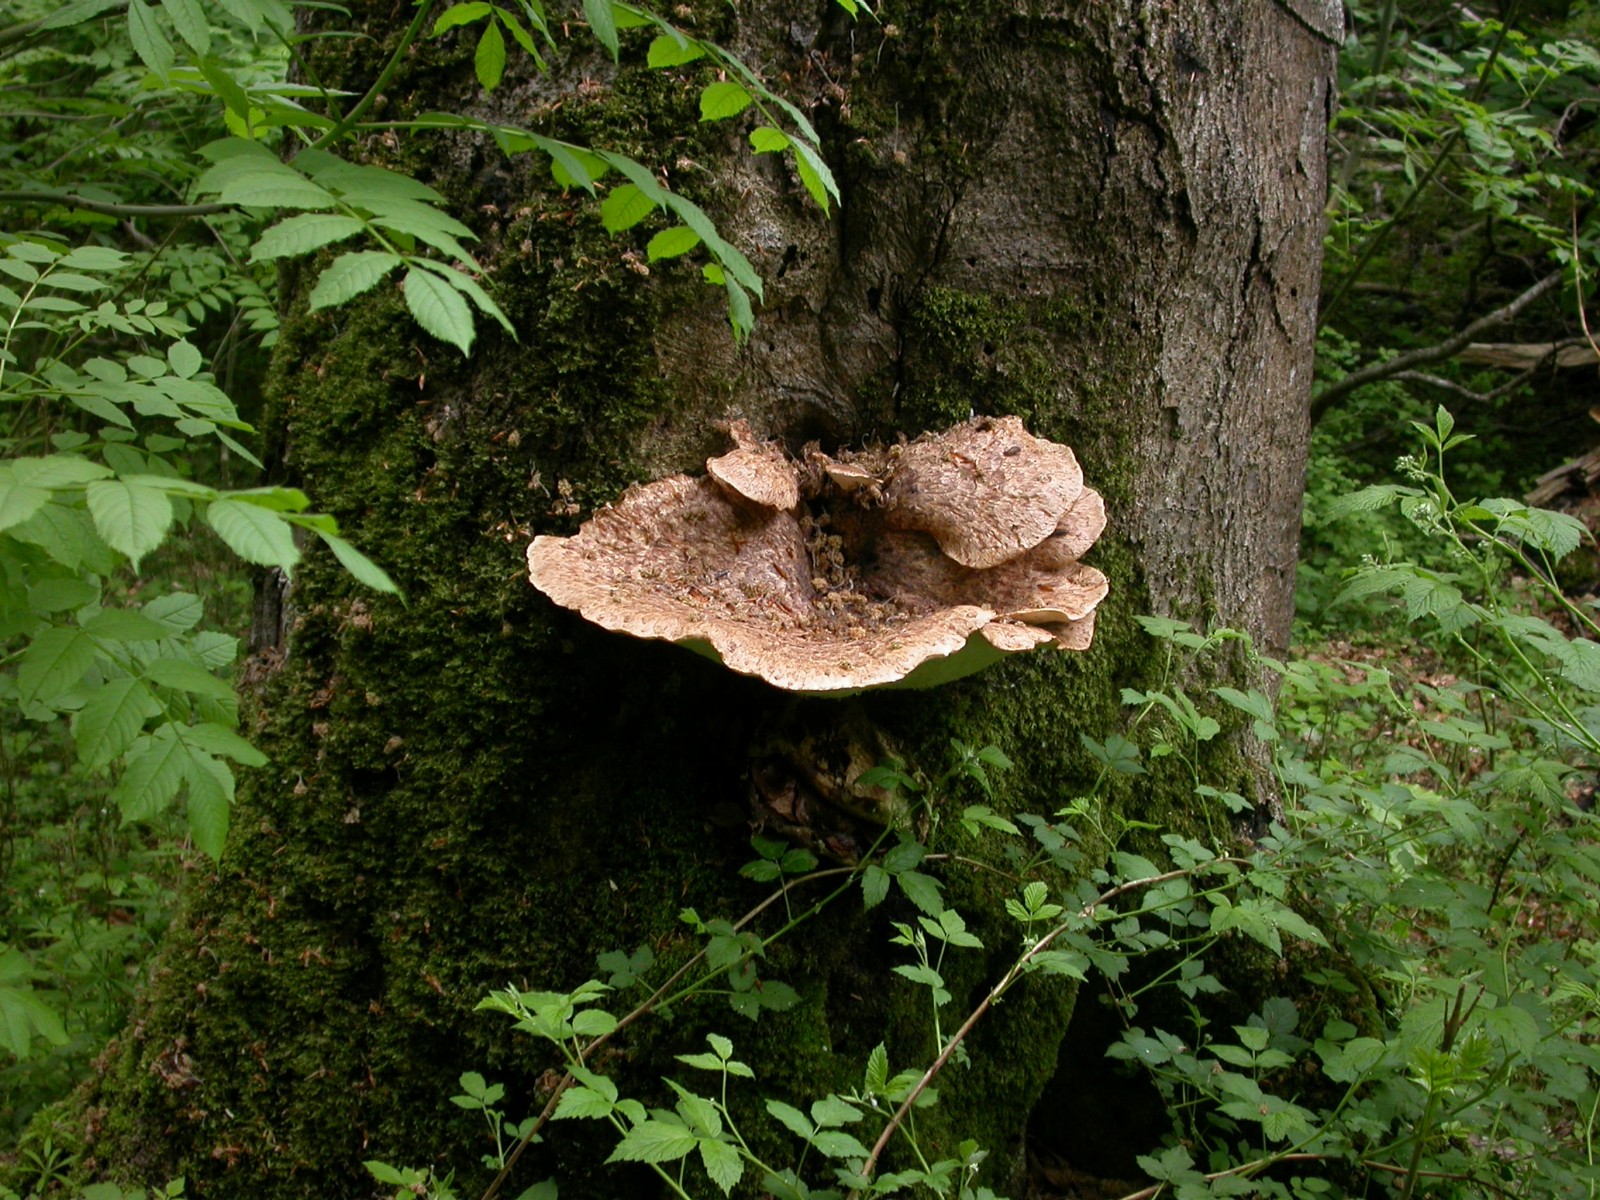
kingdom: Fungi
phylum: Basidiomycota
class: Agaricomycetes
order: Polyporales
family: Polyporaceae
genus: Cerioporus
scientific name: Cerioporus squamosus
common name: skællet stilkporesvamp
